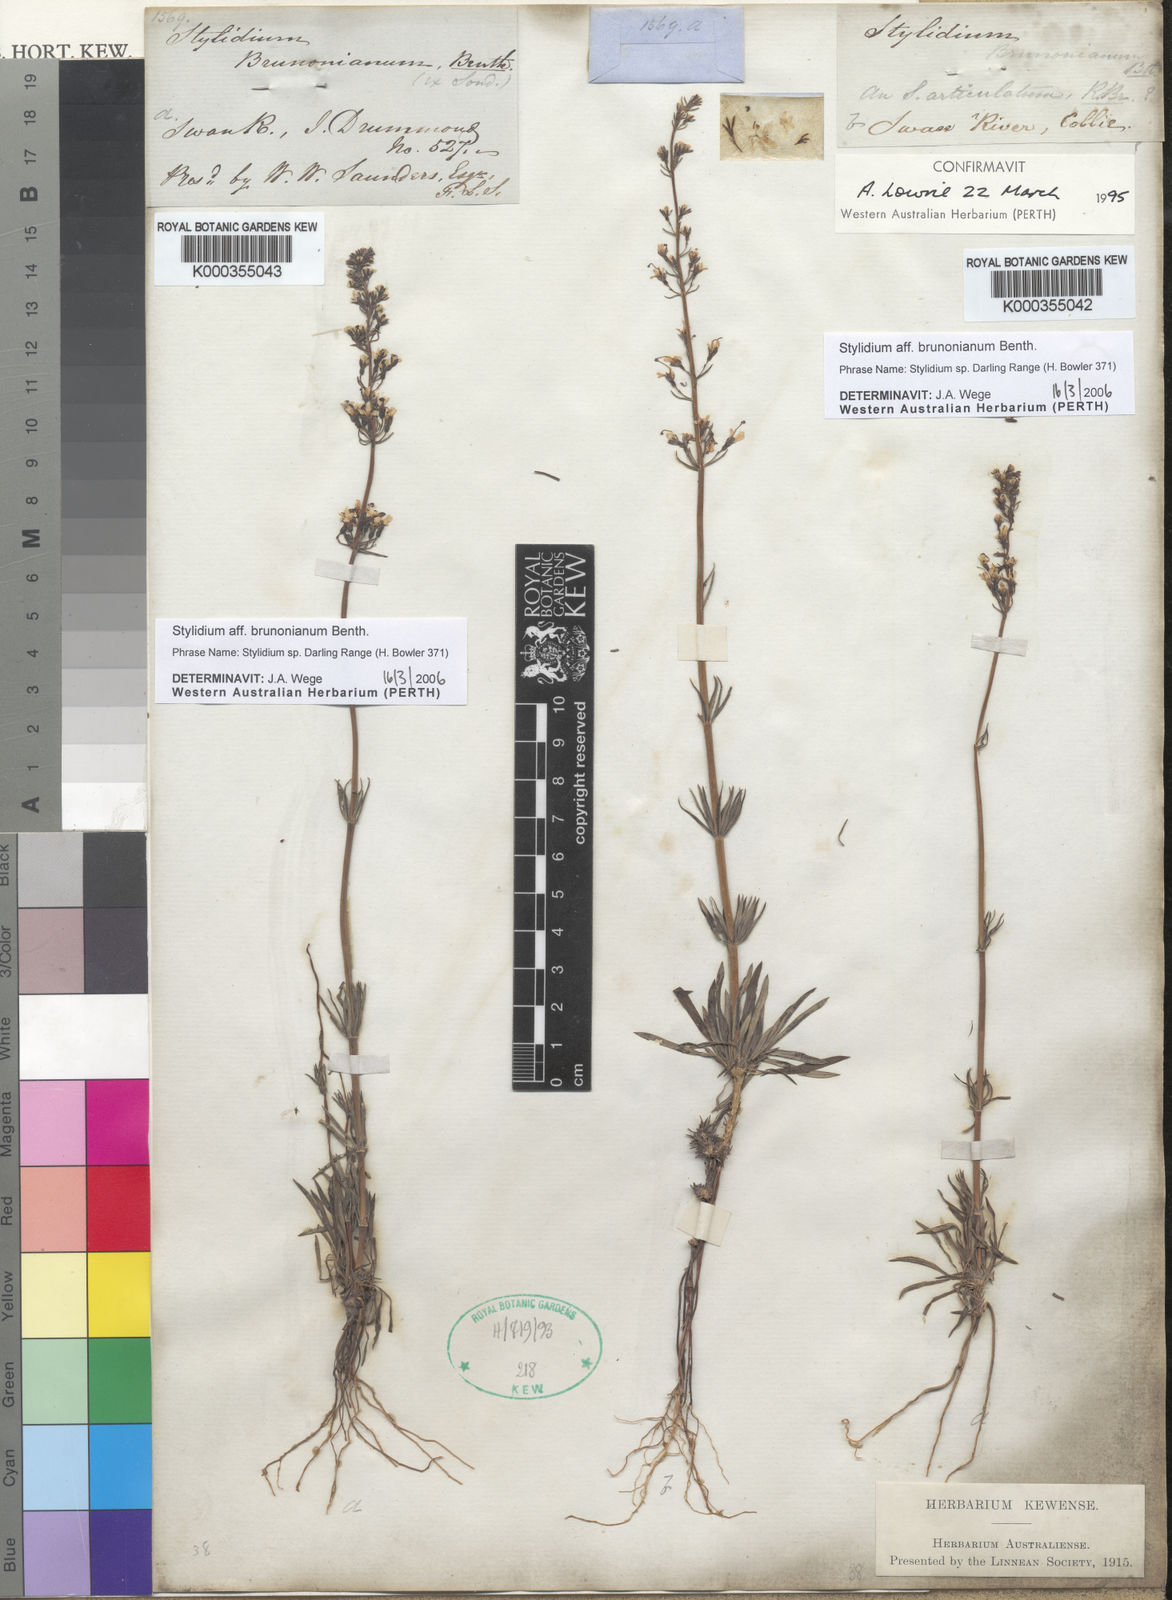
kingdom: Plantae
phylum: Tracheophyta
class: Magnoliopsida
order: Asterales
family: Stylidiaceae
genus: Stylidium
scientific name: Stylidium
